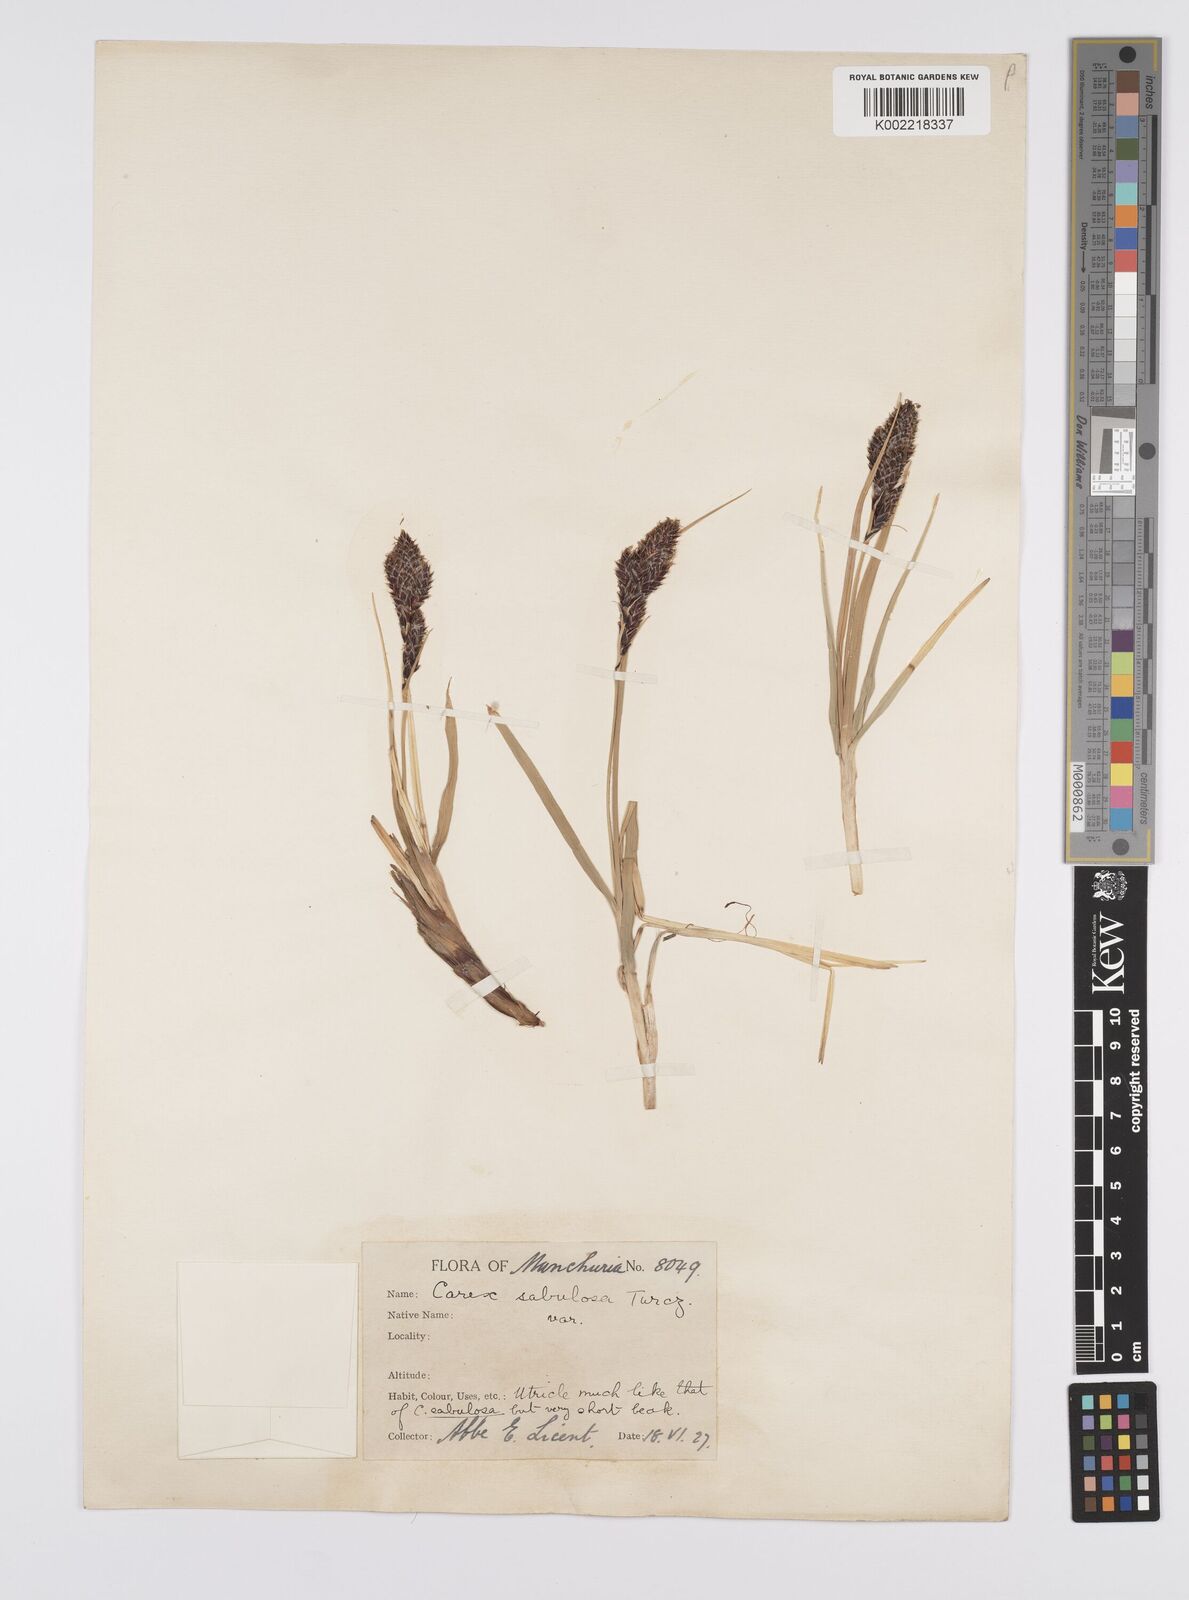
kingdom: Plantae
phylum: Tracheophyta
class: Liliopsida
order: Poales
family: Cyperaceae
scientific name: Cyperaceae
